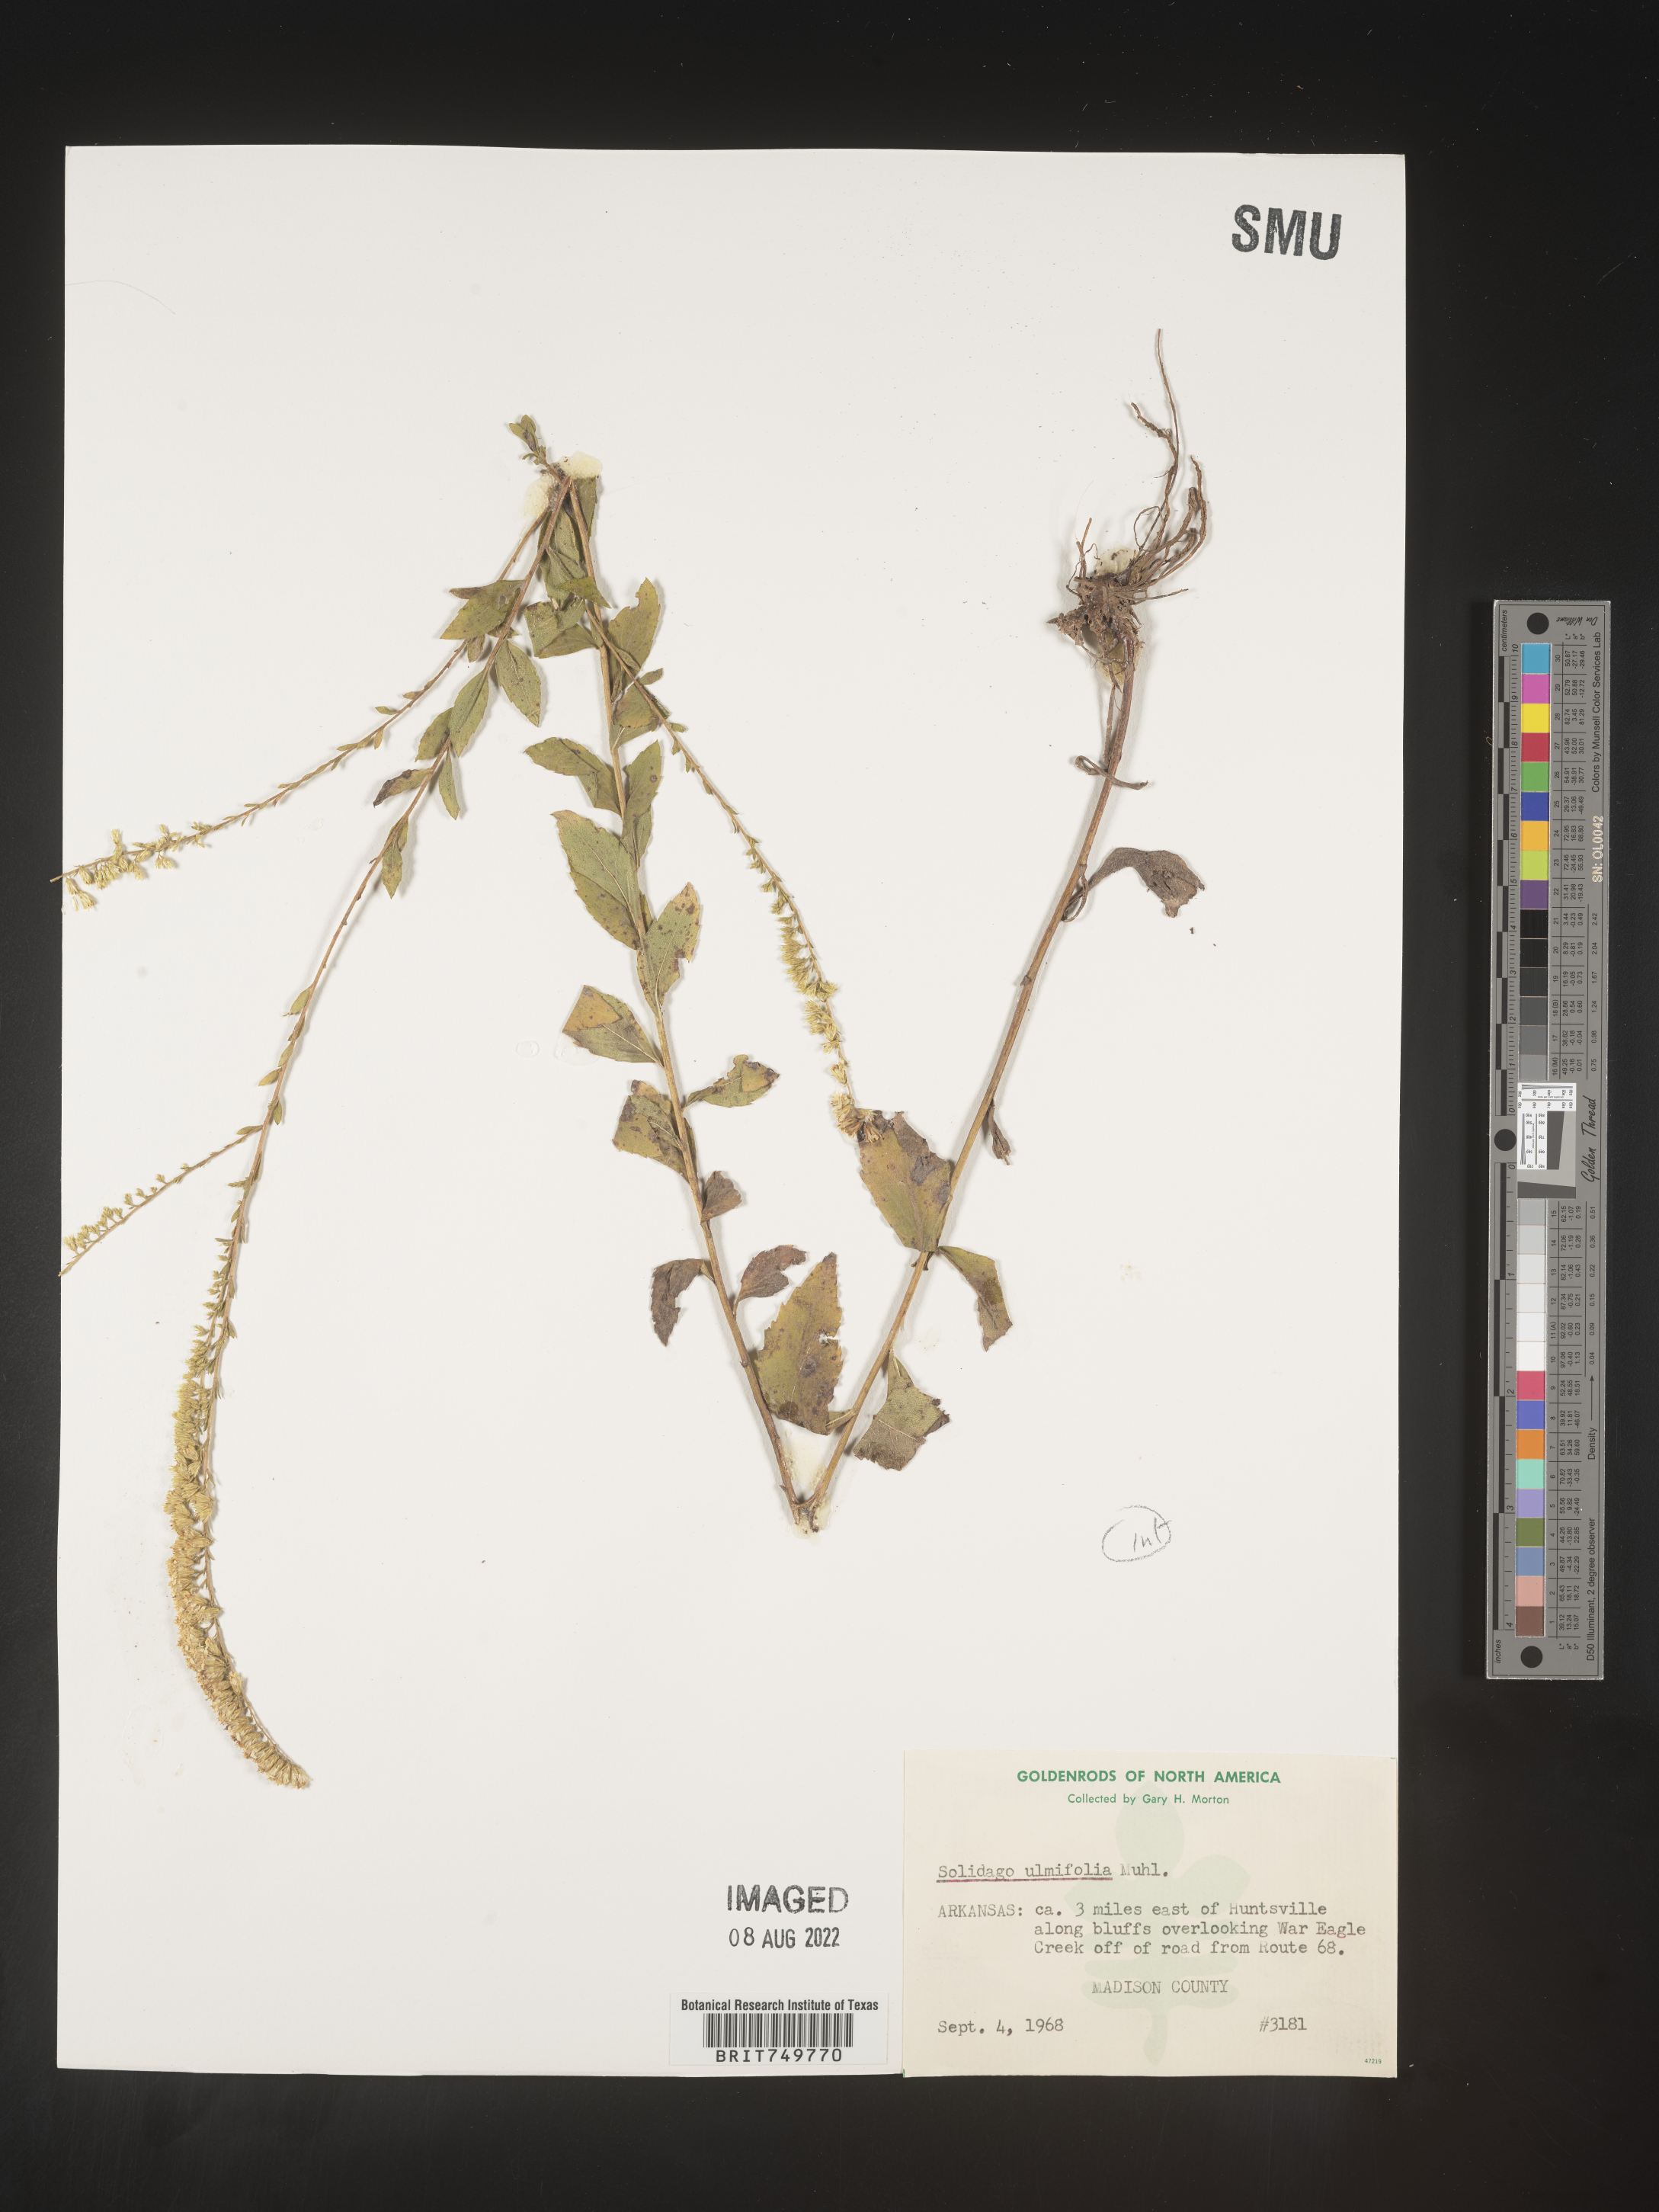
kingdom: Plantae
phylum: Tracheophyta
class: Magnoliopsida
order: Asterales
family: Asteraceae
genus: Solidago
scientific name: Solidago ulmifolia
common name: Elm-leaf goldenrod
